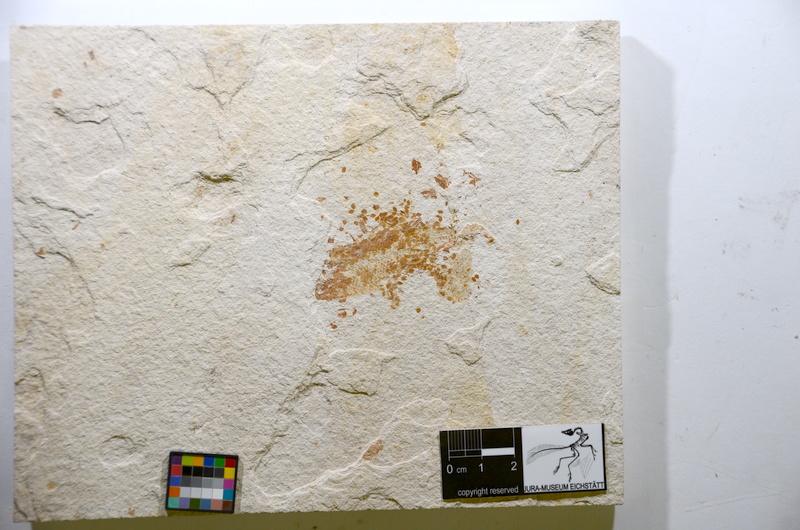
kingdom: Animalia
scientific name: Animalia
